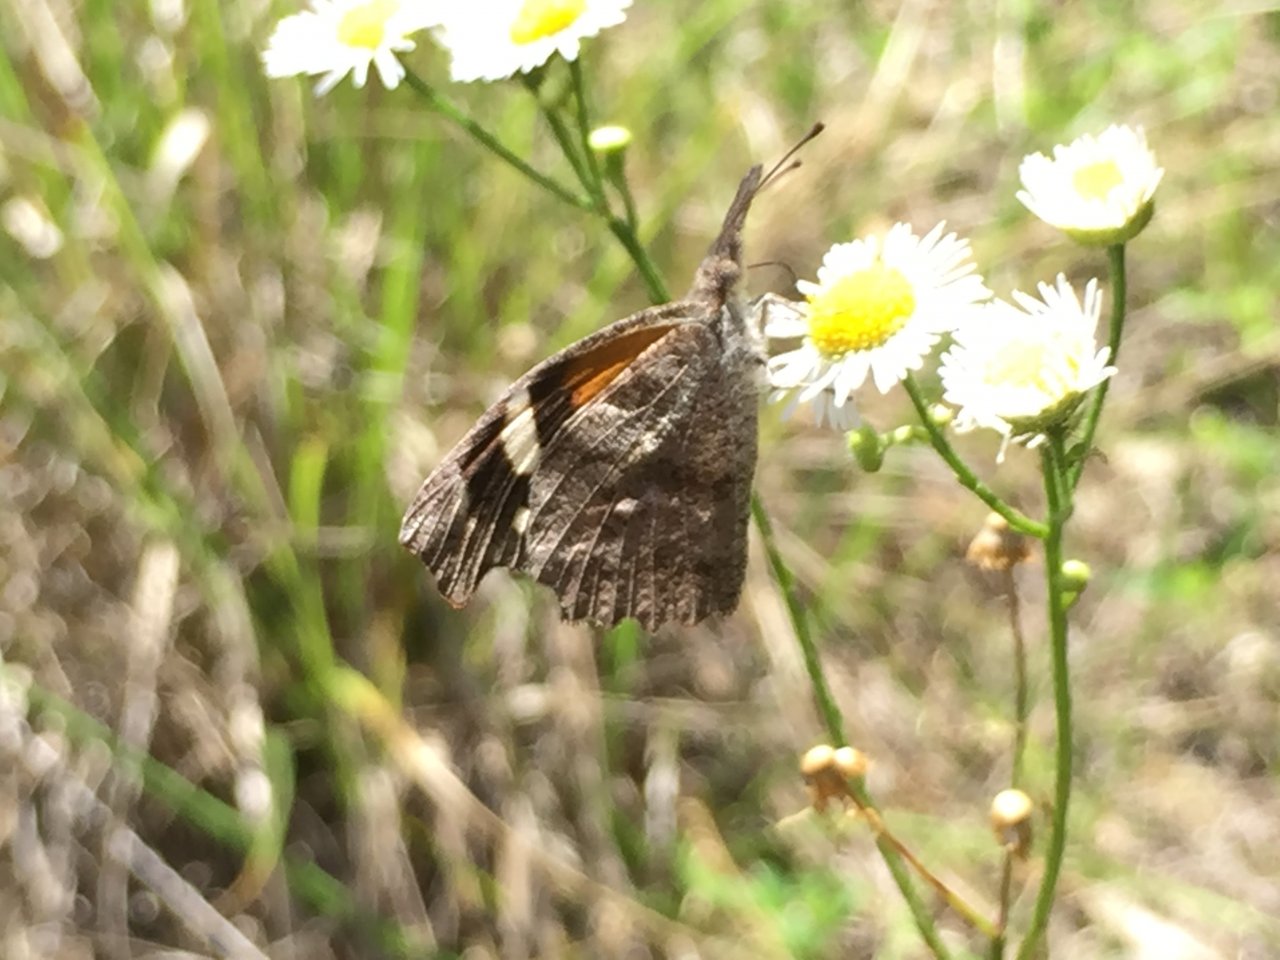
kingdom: Animalia
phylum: Arthropoda
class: Insecta
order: Lepidoptera
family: Nymphalidae
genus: Libytheana
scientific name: Libytheana carinenta
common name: American Snout
